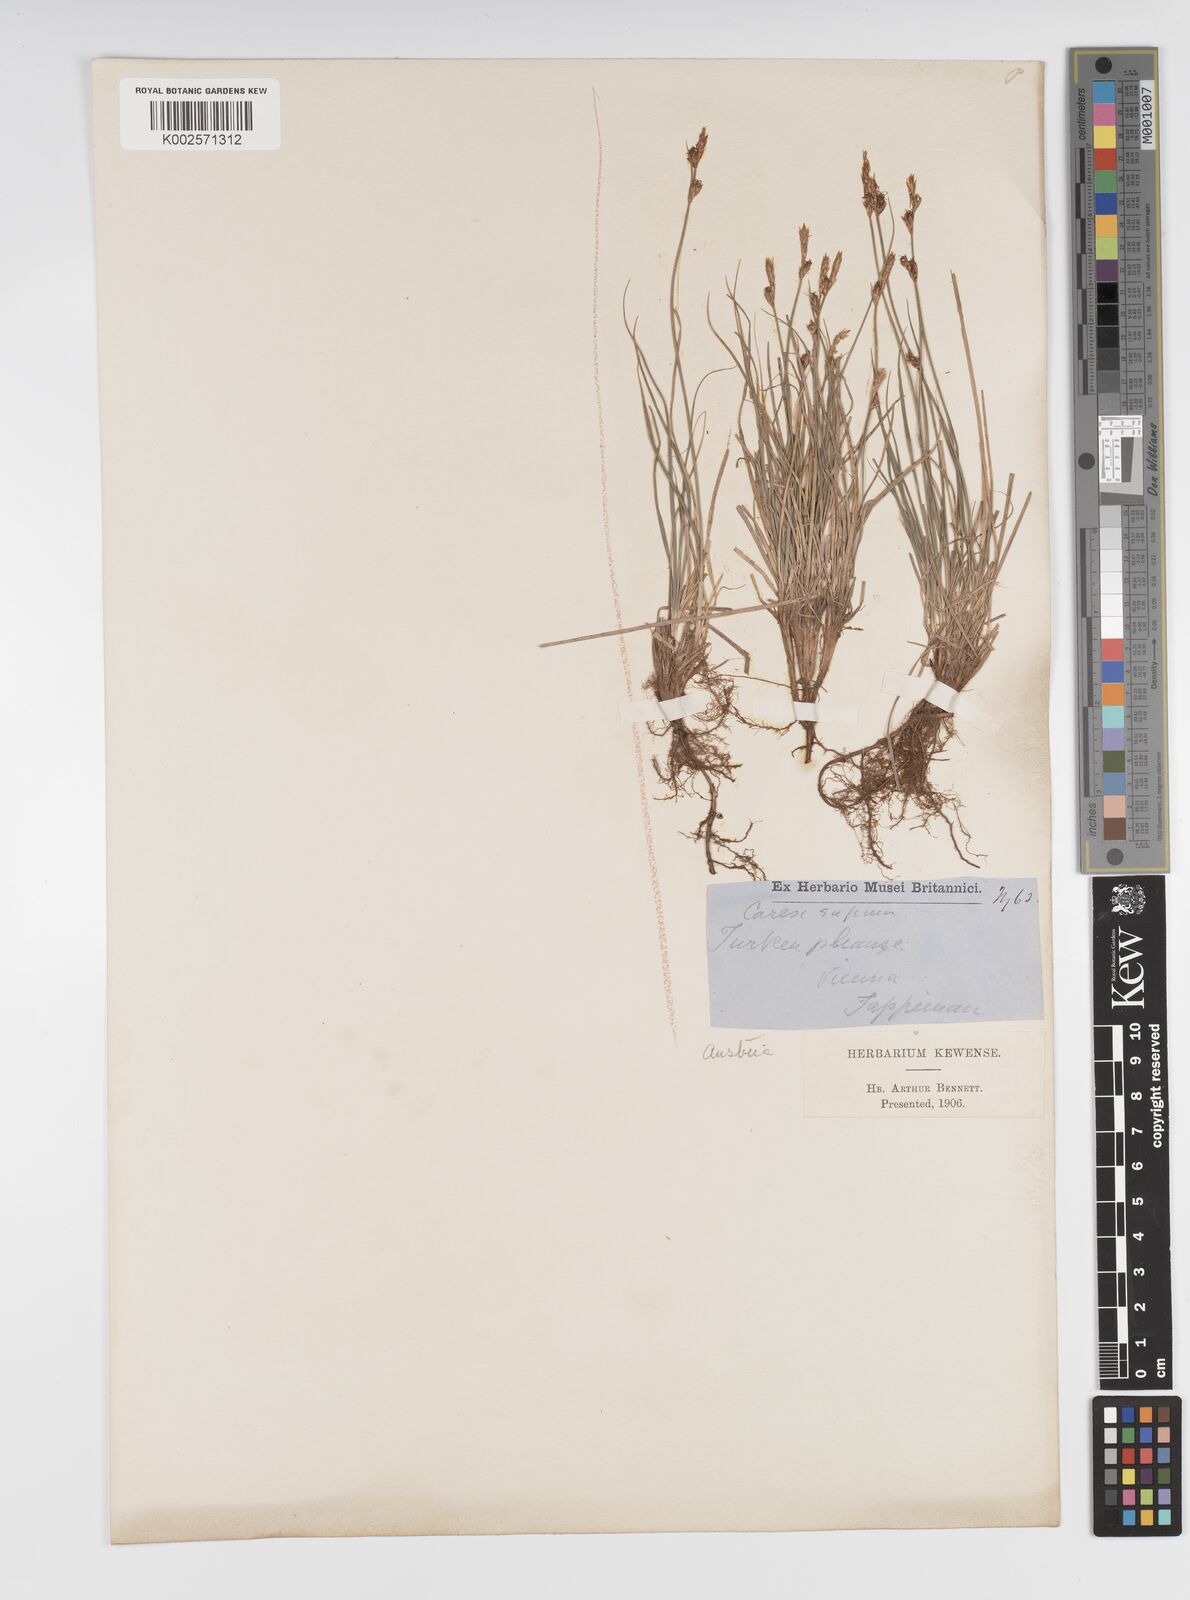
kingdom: Plantae
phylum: Tracheophyta
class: Liliopsida
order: Poales
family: Cyperaceae
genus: Carex
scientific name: Carex supina
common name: Lying-back sedge
